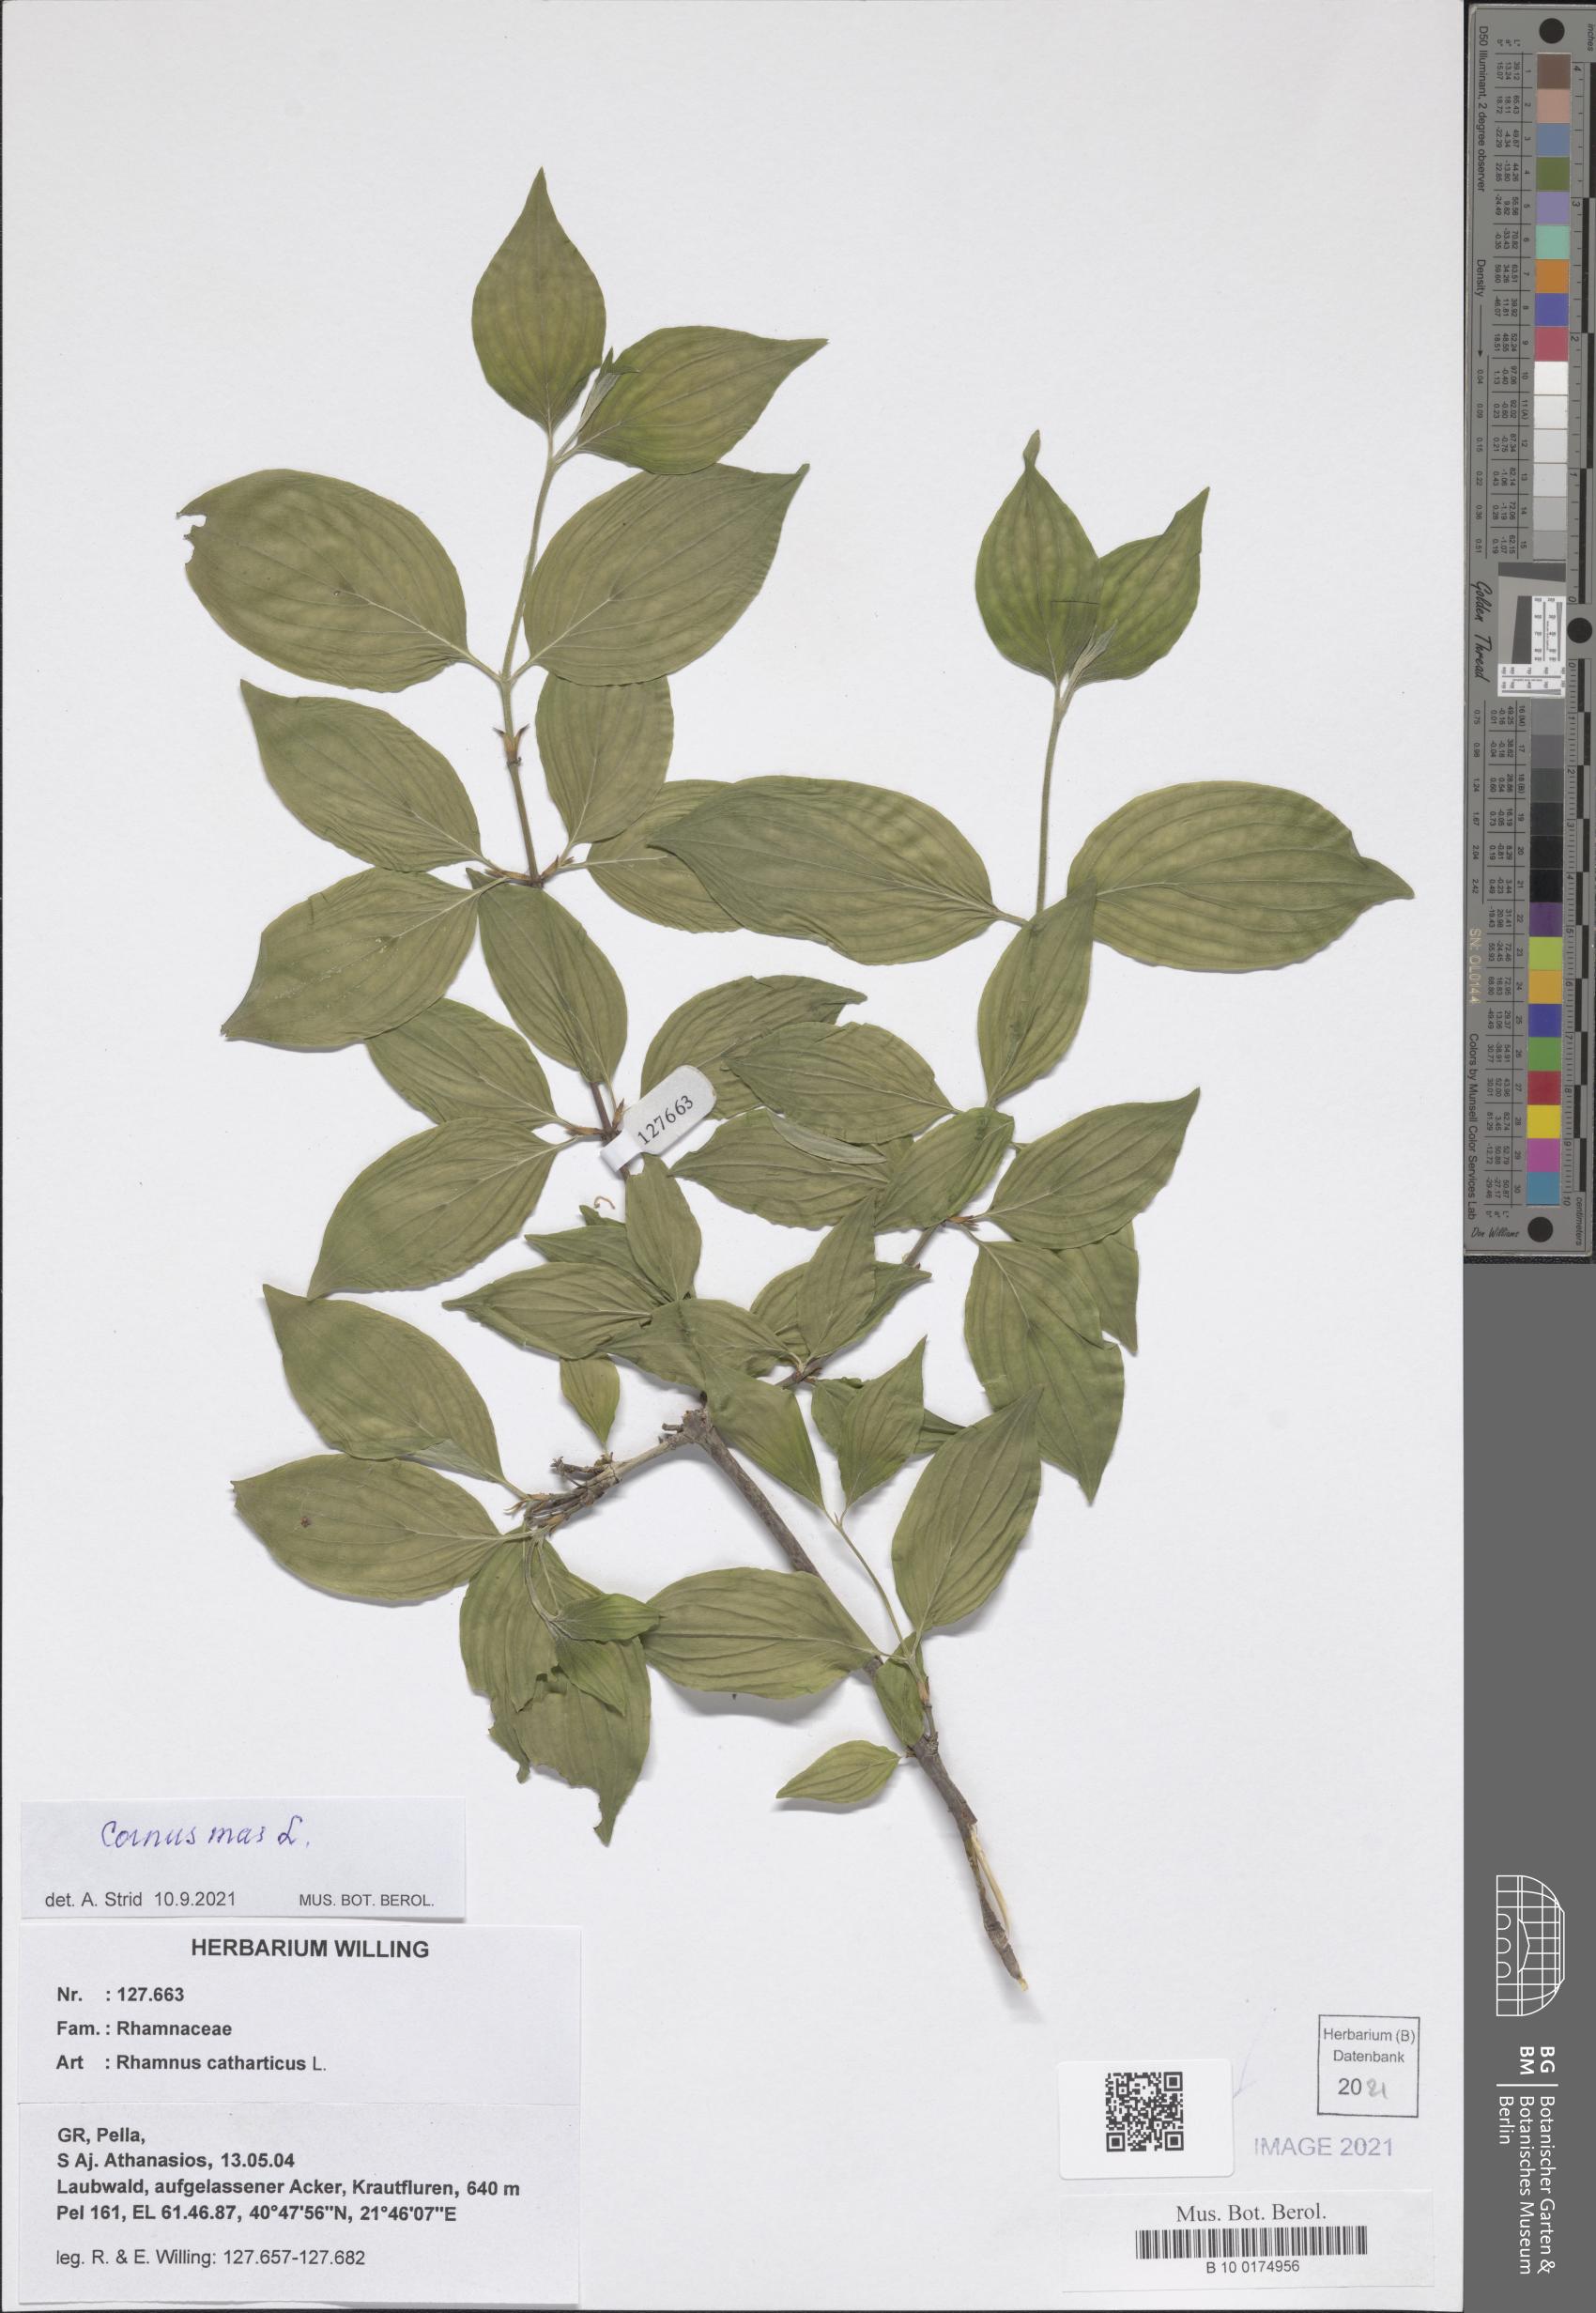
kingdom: Plantae
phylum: Tracheophyta
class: Magnoliopsida
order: Cornales
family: Cornaceae
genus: Cornus
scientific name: Cornus mas
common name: Cornelian-cherry
